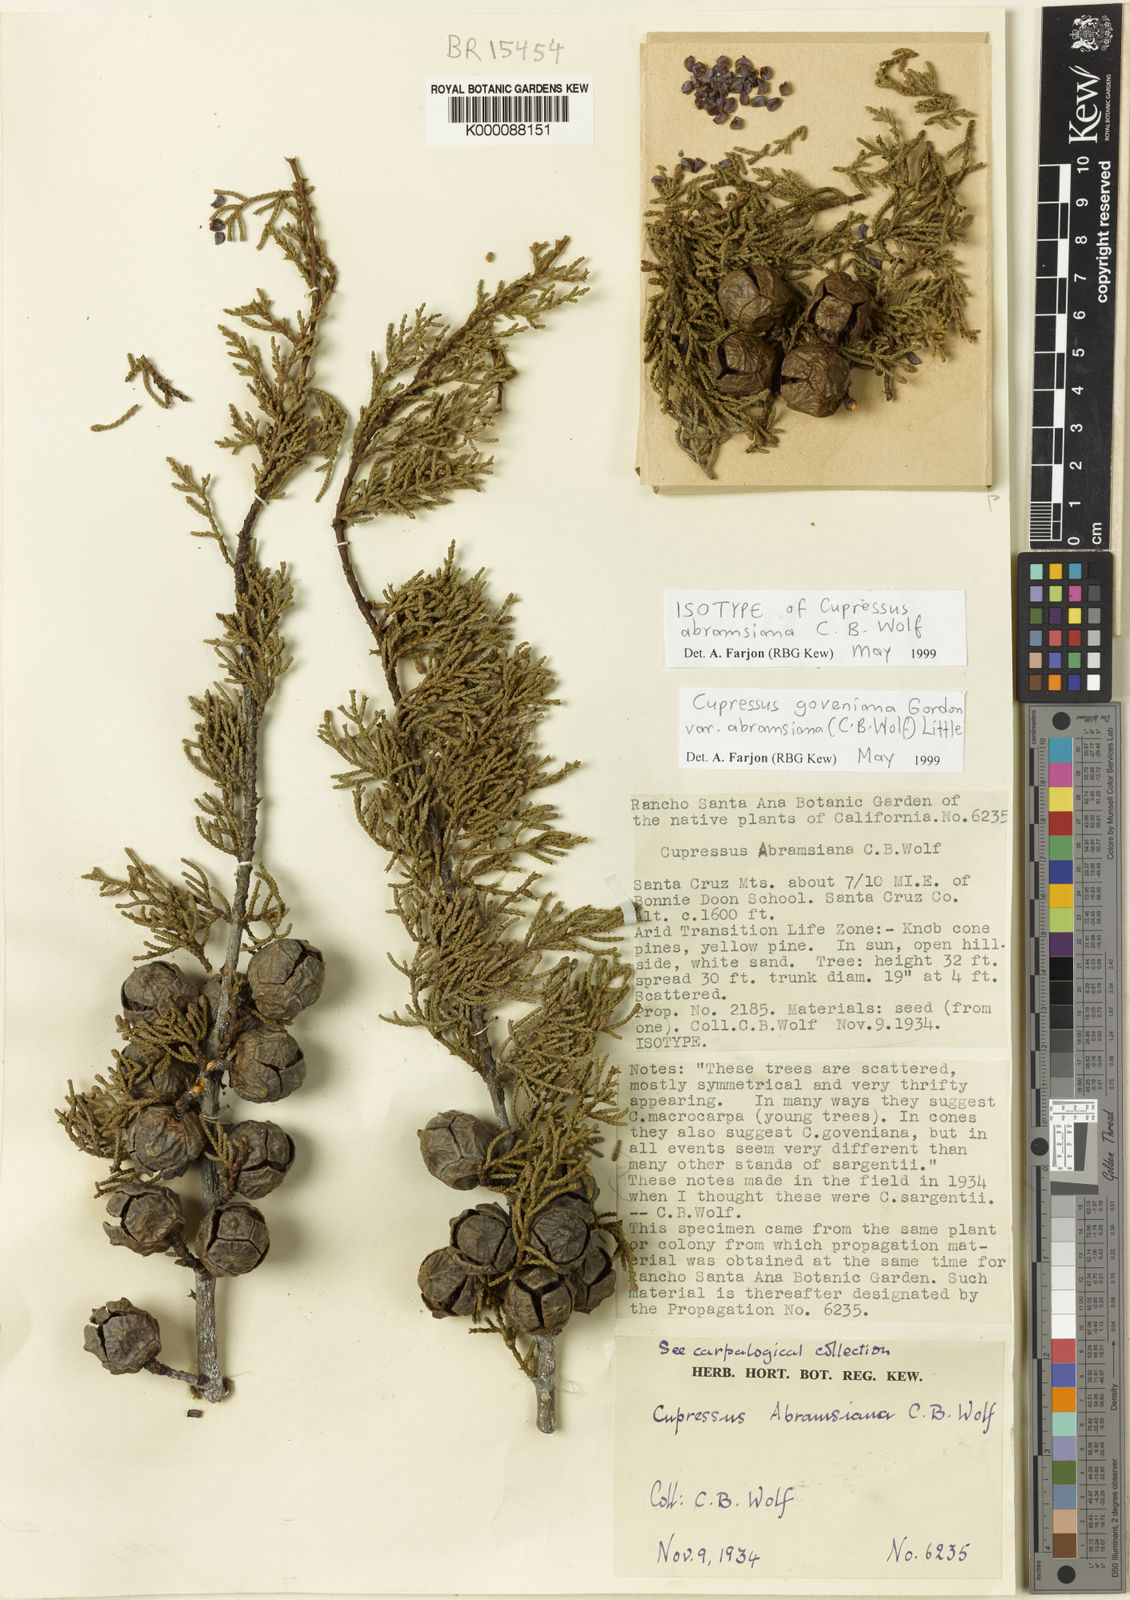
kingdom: Plantae
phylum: Tracheophyta
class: Pinopsida
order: Pinales
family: Cupressaceae
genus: Cupressus
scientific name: Cupressus goveniana
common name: Gowen cypress
